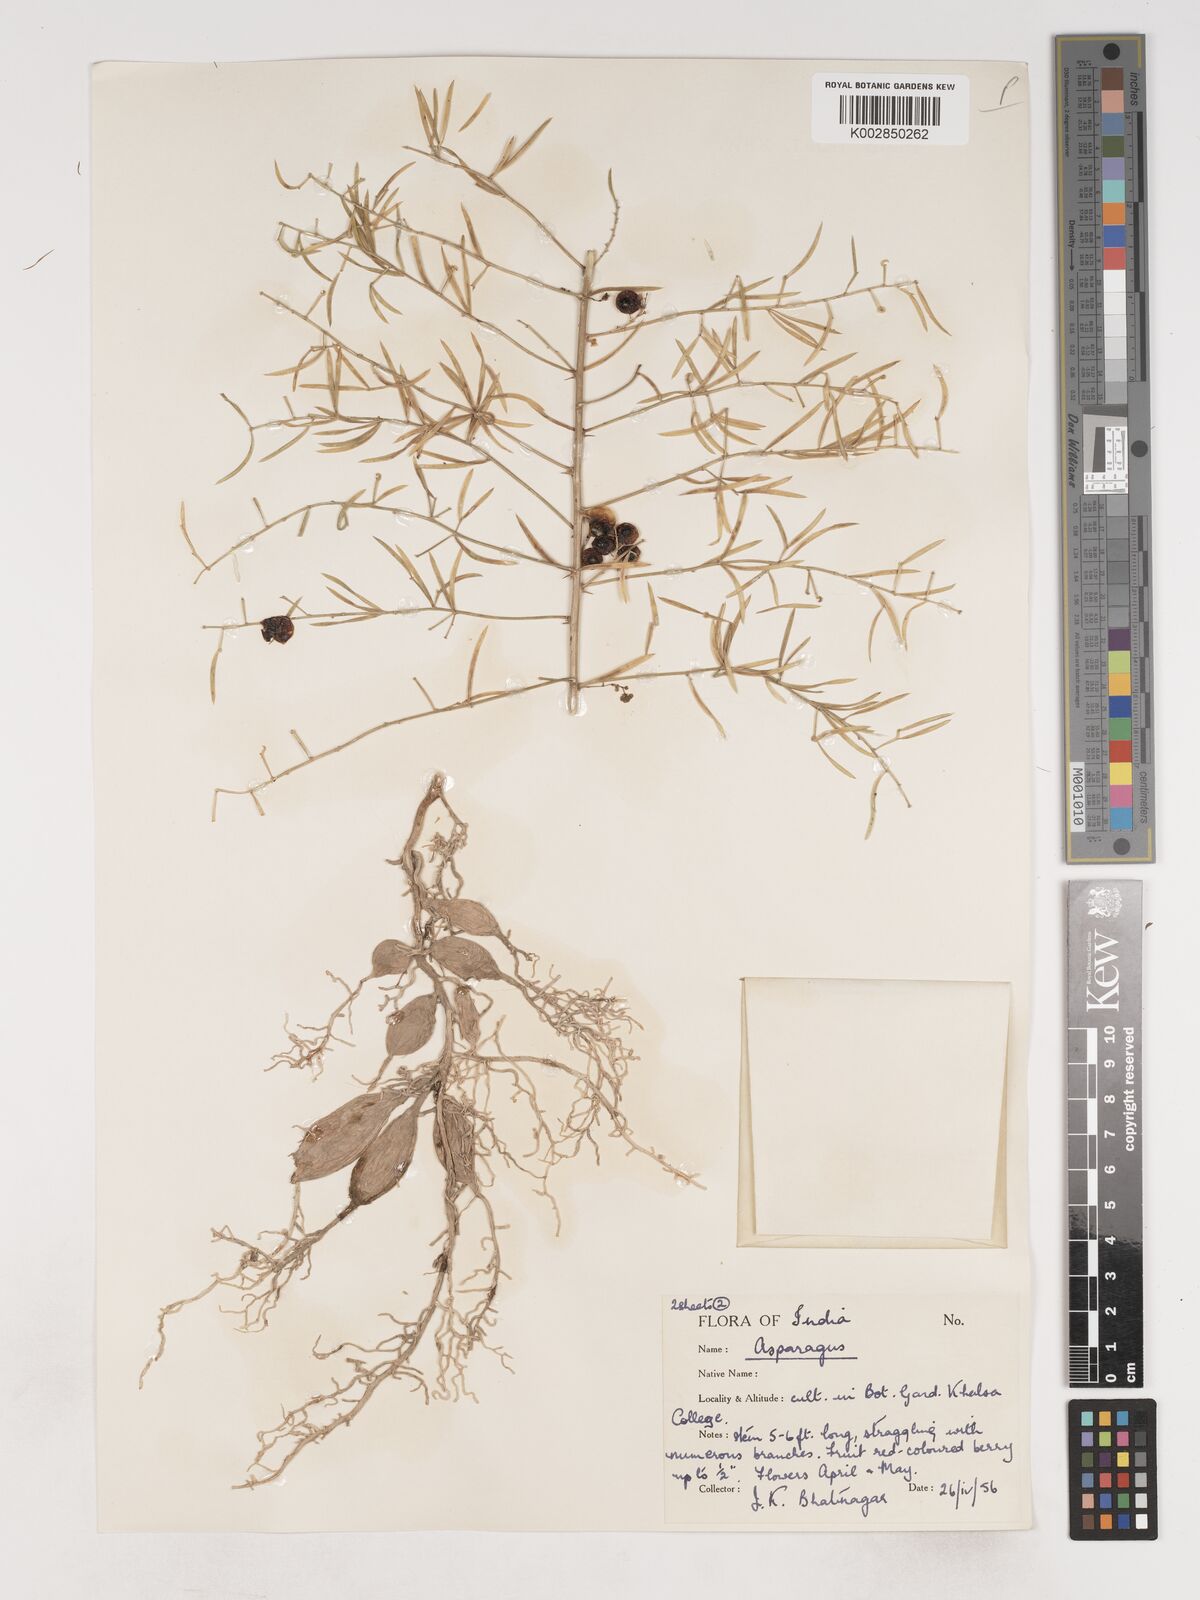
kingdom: Plantae
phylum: Tracheophyta
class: Liliopsida
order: Asparagales
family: Asparagaceae
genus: Asparagus
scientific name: Asparagus
